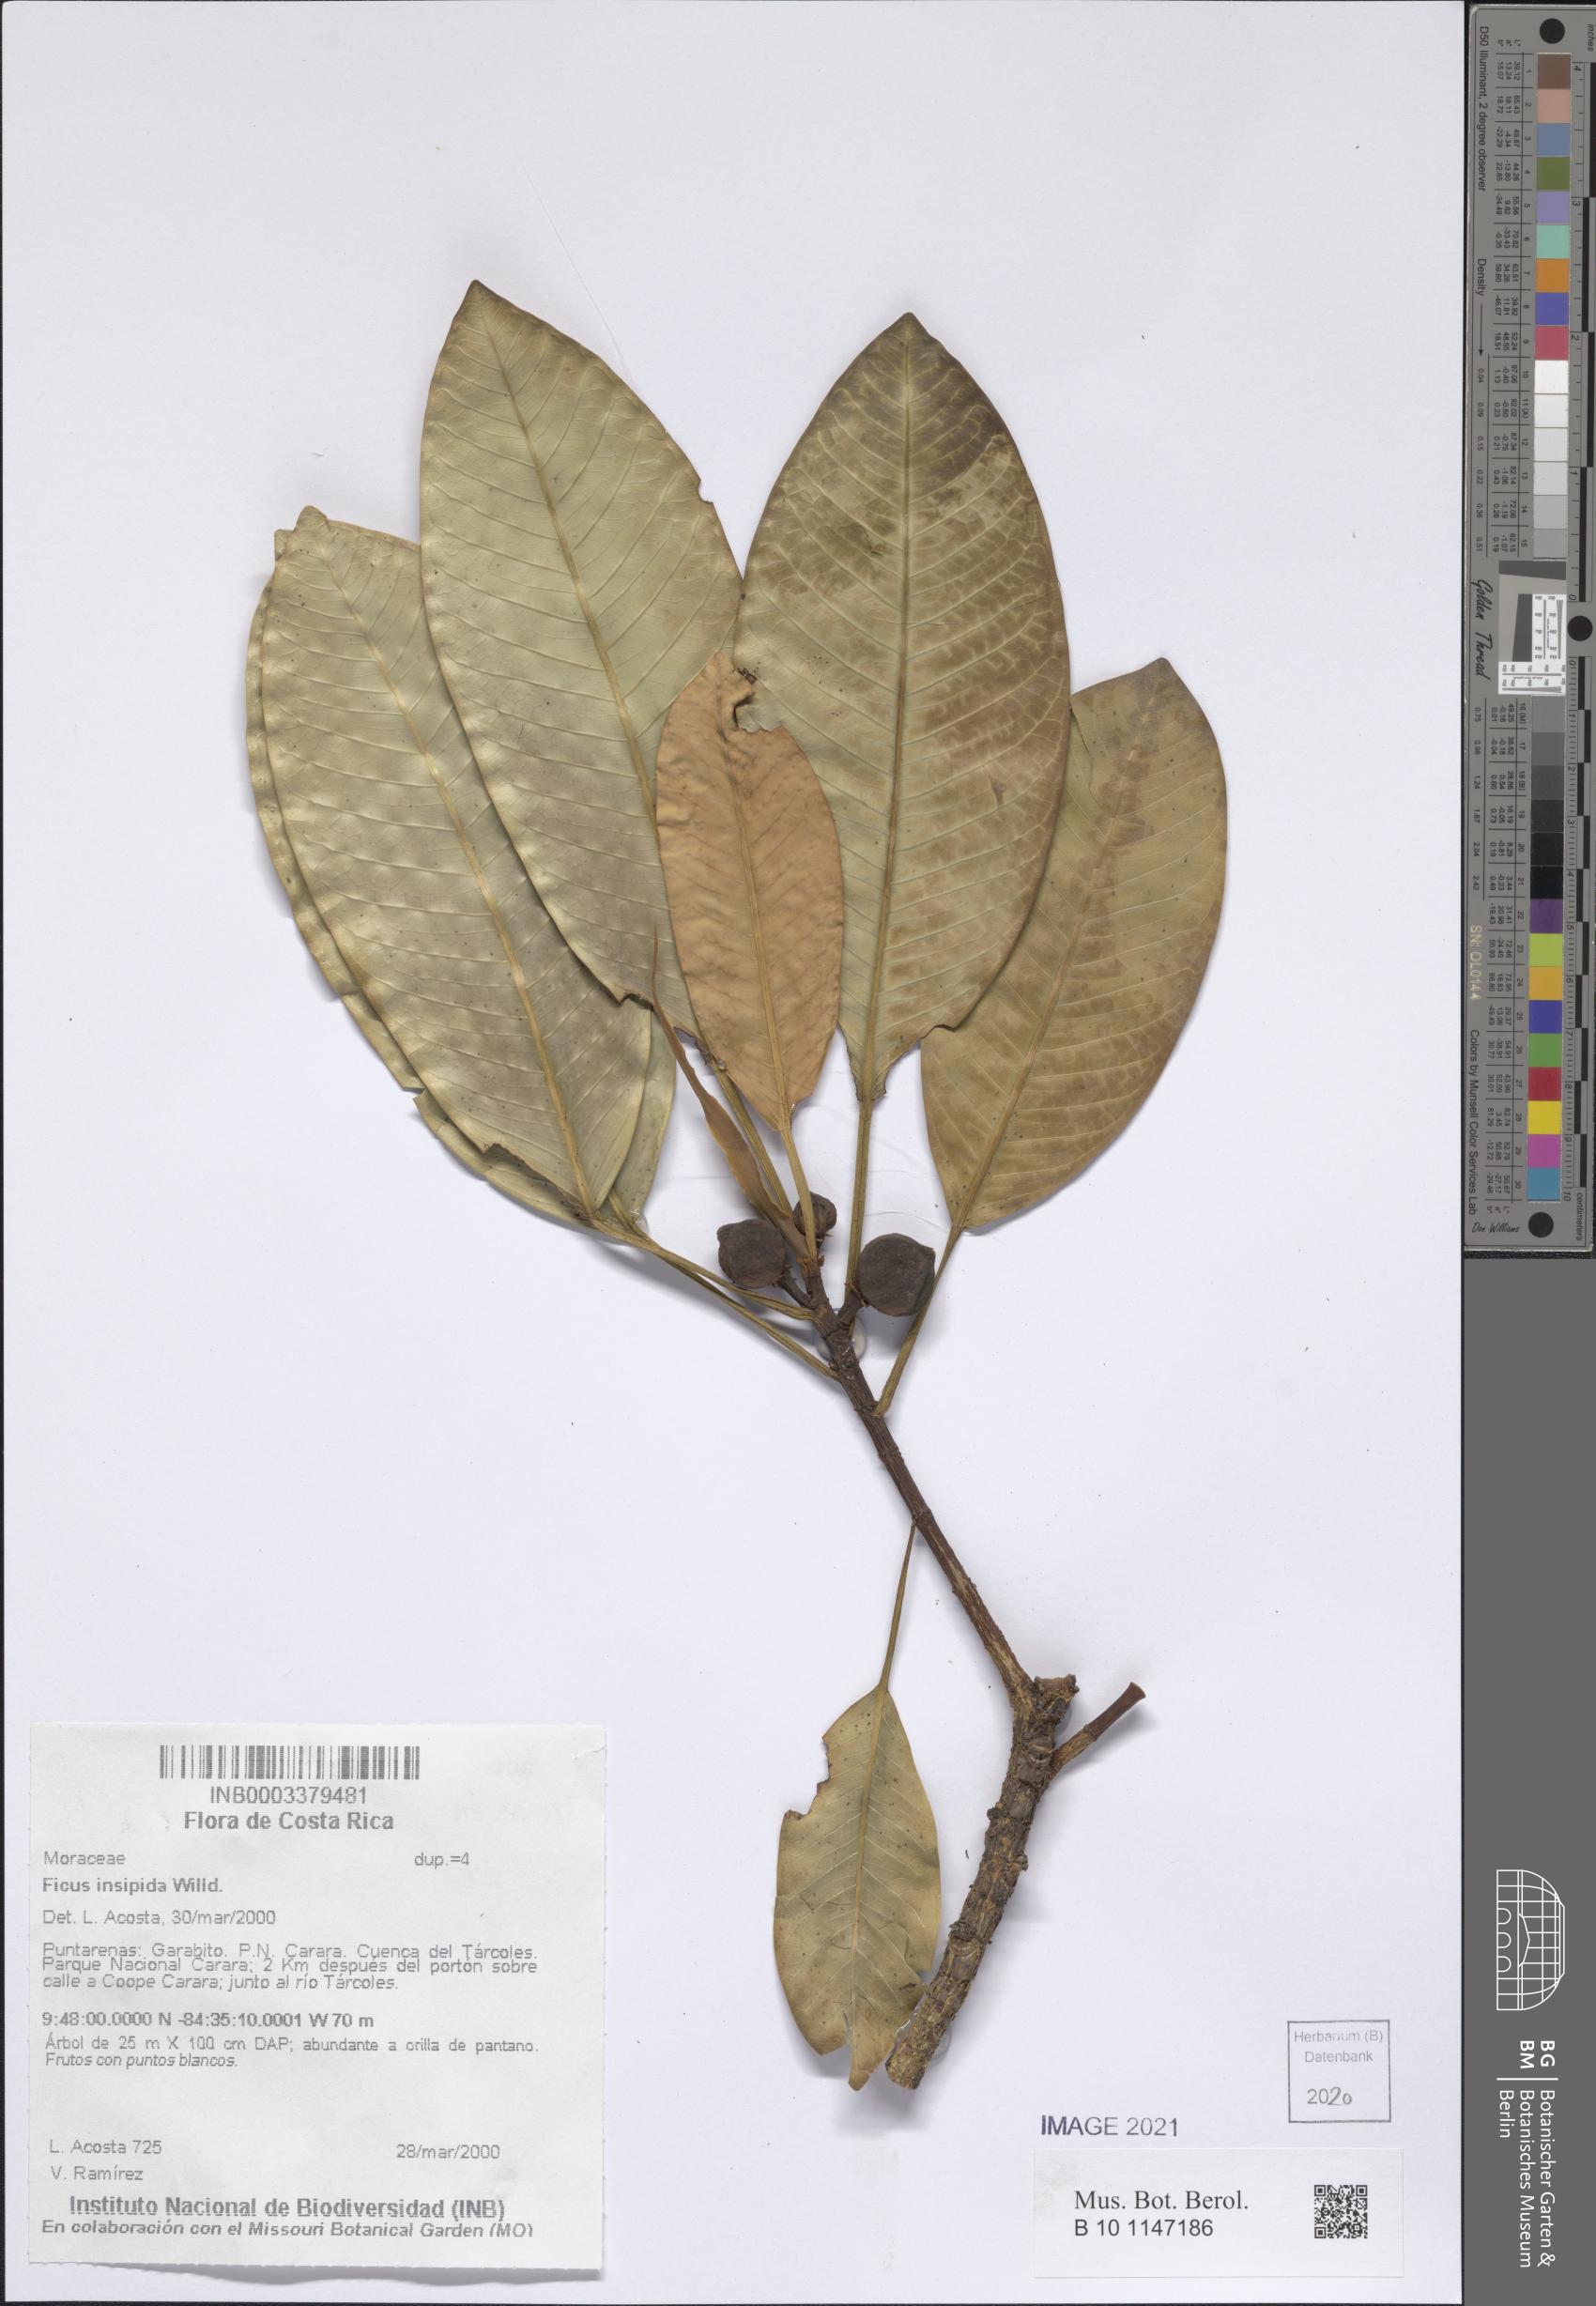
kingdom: Plantae
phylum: Tracheophyta
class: Magnoliopsida
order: Rosales
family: Moraceae
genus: Ficus
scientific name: Ficus insipida
